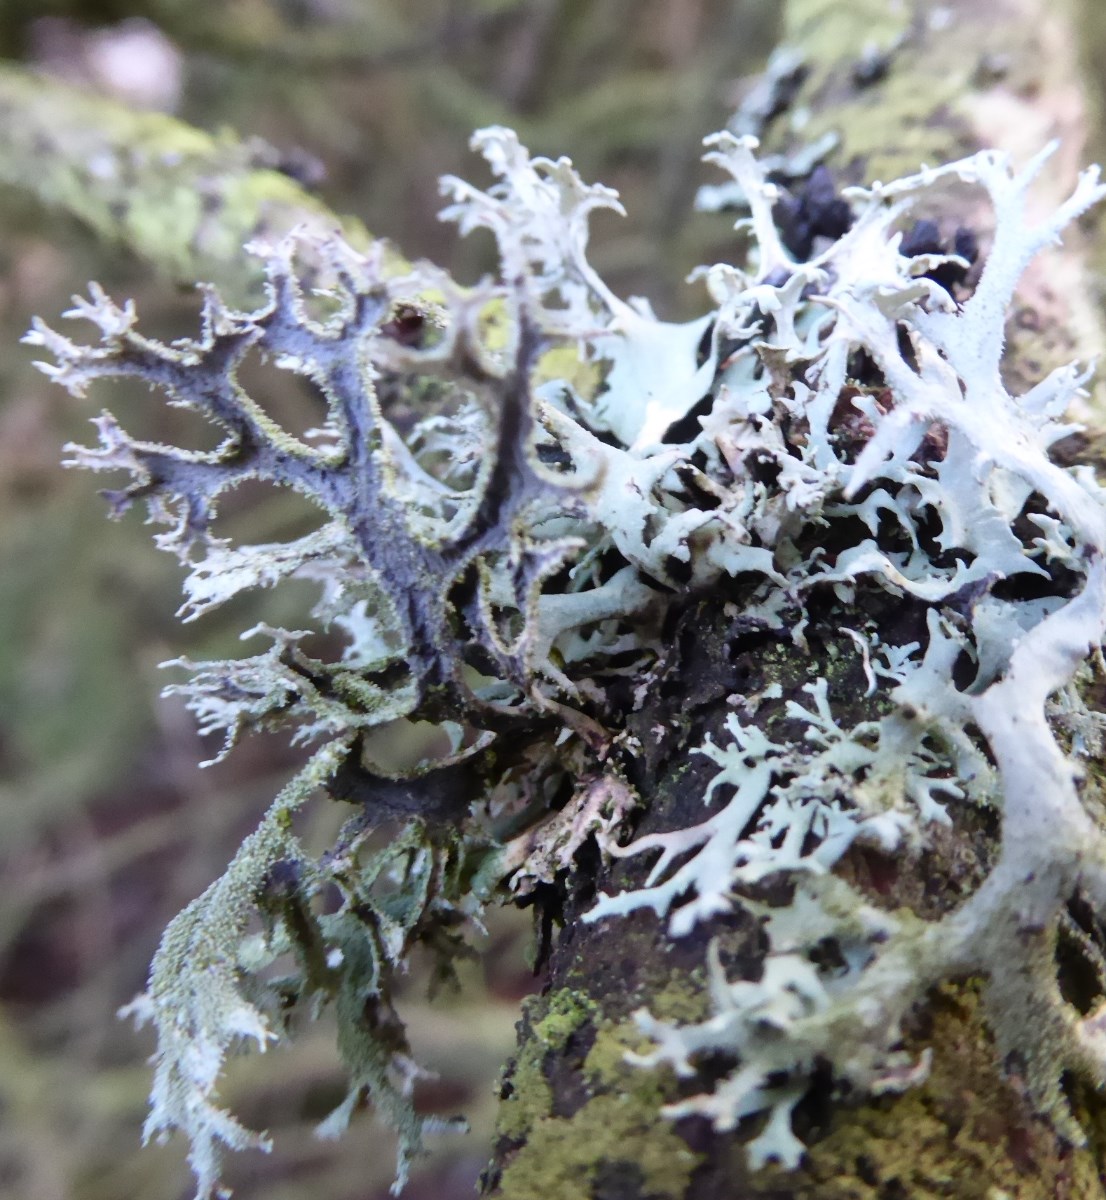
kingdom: Fungi
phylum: Ascomycota
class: Lecanoromycetes
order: Lecanorales
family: Parmeliaceae
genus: Pseudevernia
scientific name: Pseudevernia furfuracea
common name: grå fyrrelav
